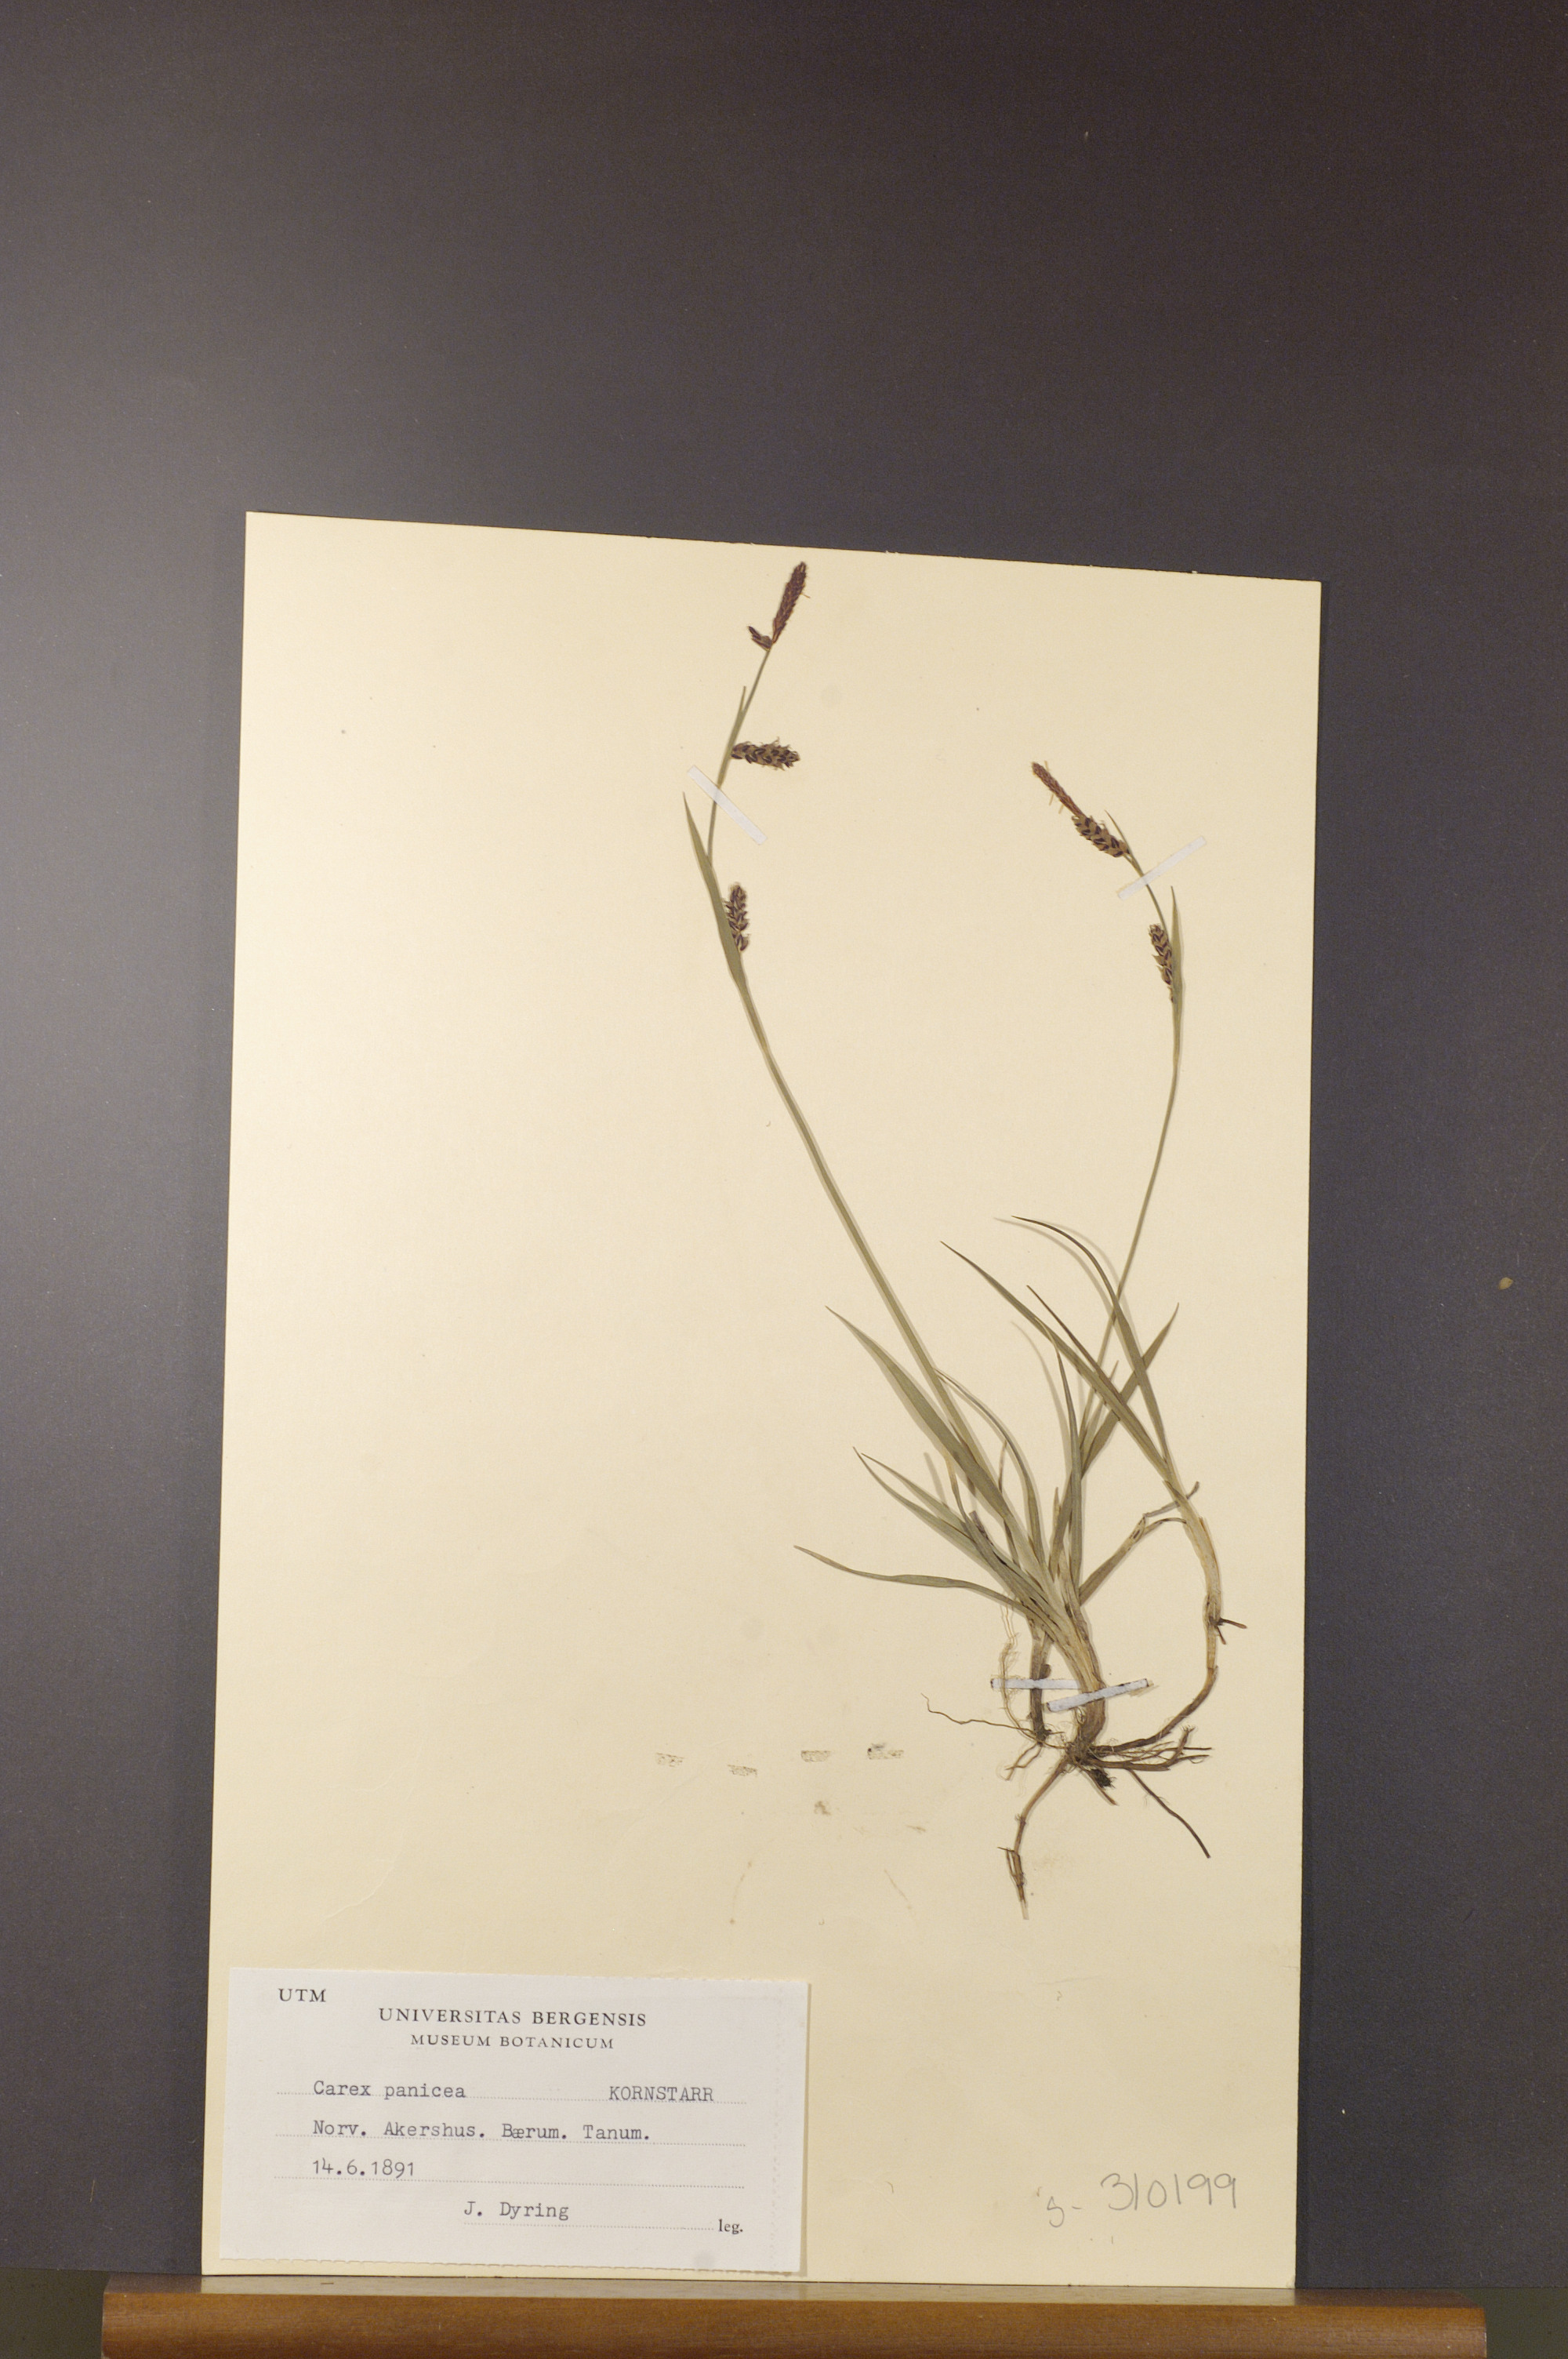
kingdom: Plantae
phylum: Tracheophyta
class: Liliopsida
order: Poales
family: Cyperaceae
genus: Carex
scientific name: Carex panicea
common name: Carnation sedge
